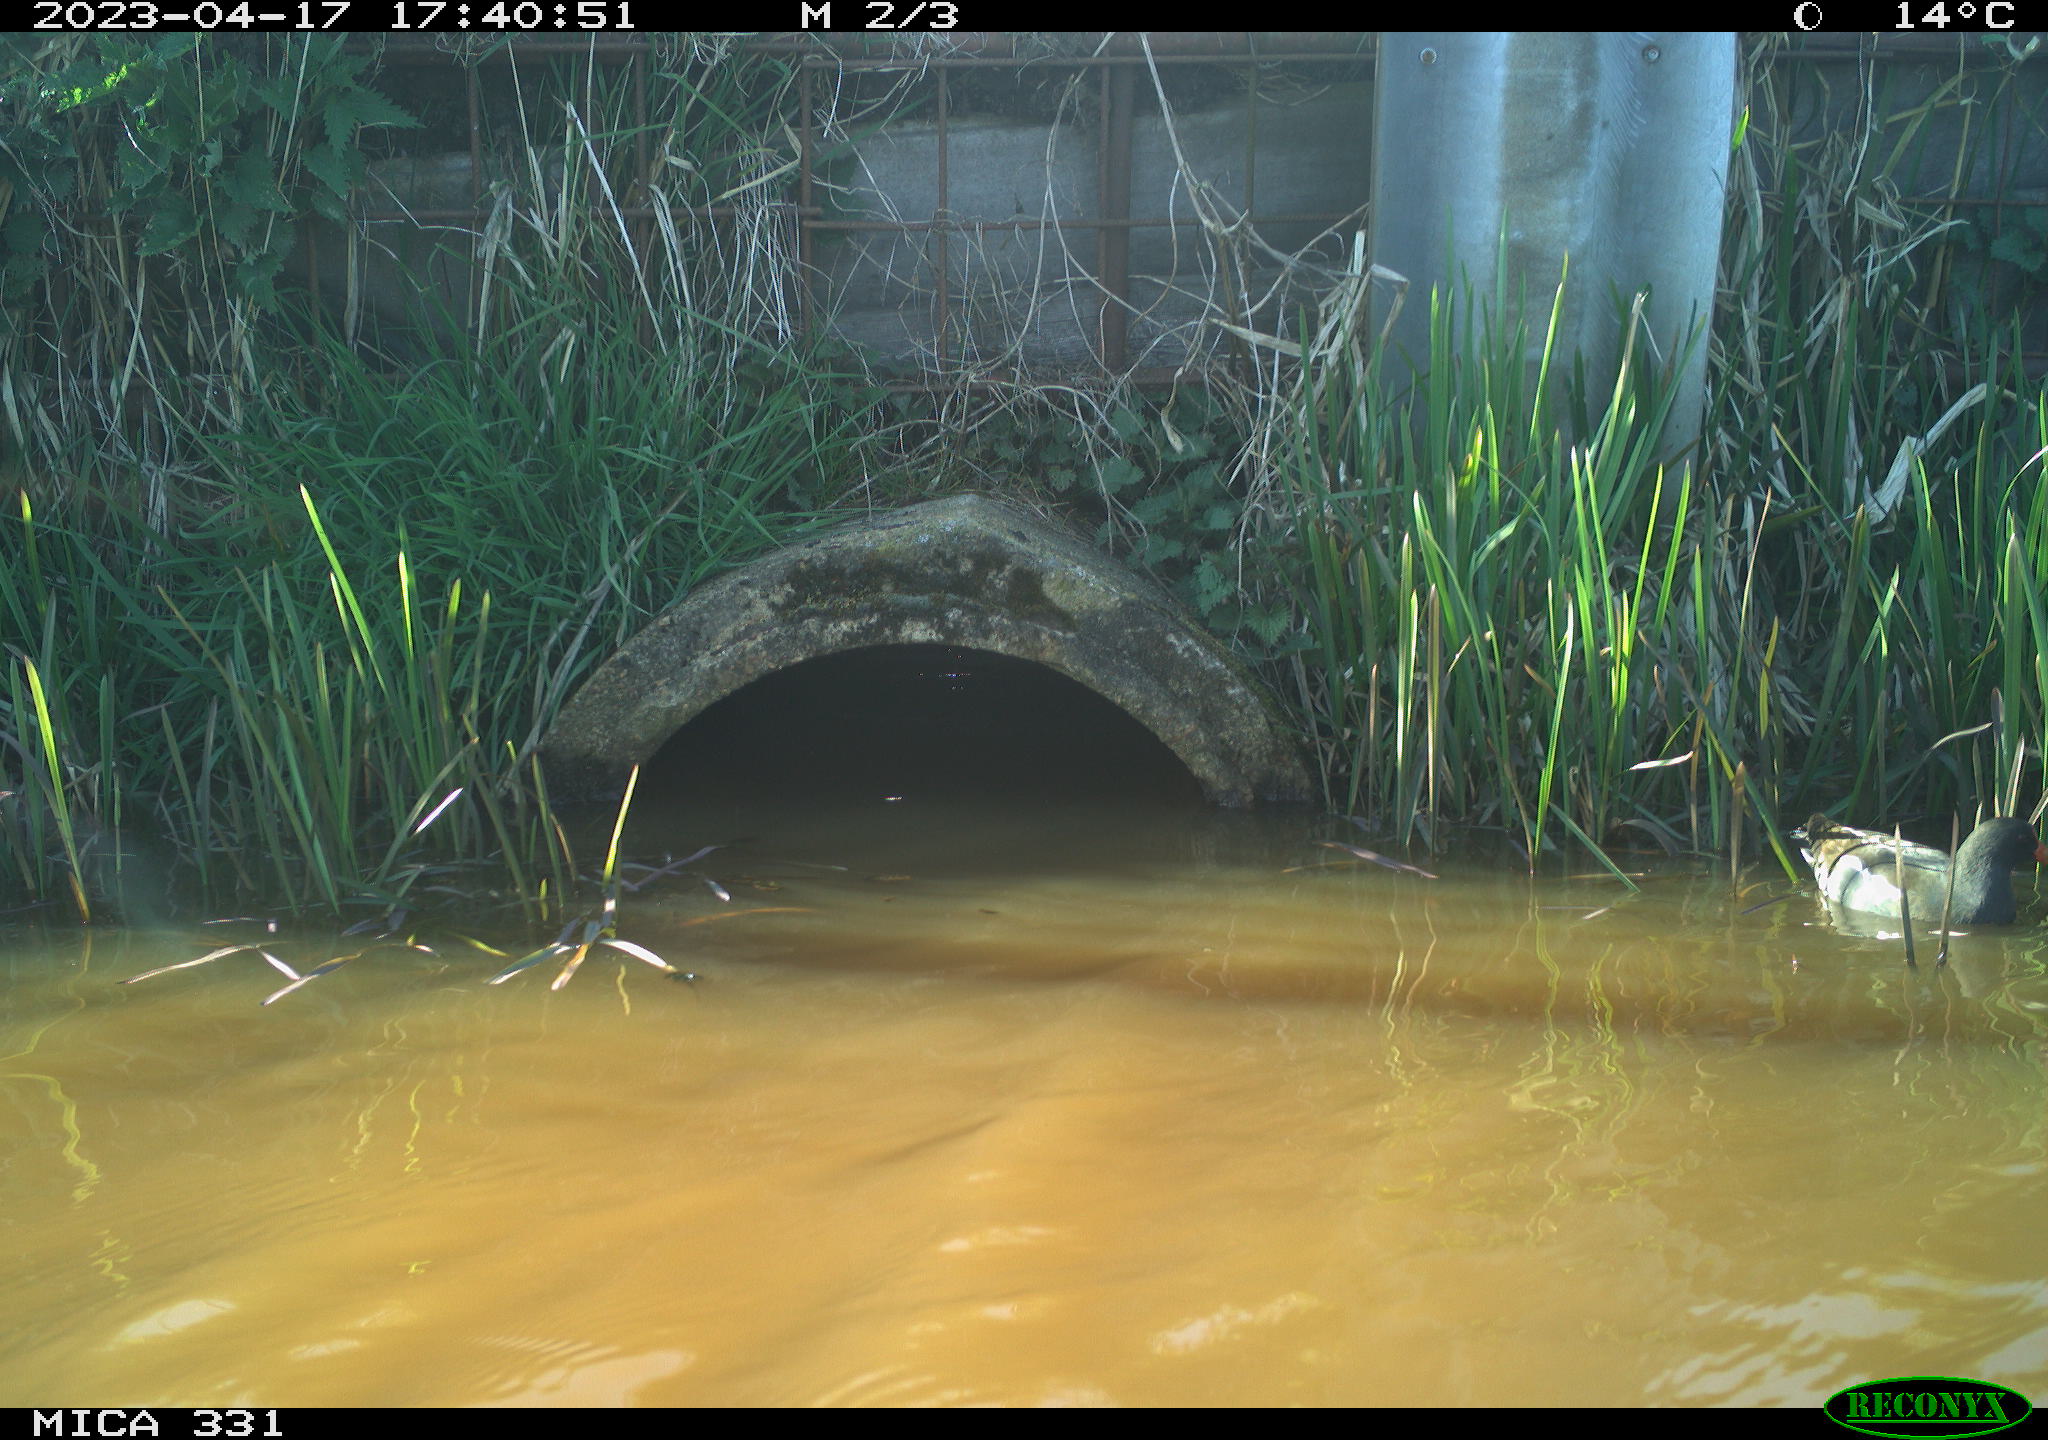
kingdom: Animalia
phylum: Chordata
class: Aves
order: Gruiformes
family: Rallidae
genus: Gallinula
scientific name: Gallinula chloropus
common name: Common moorhen
